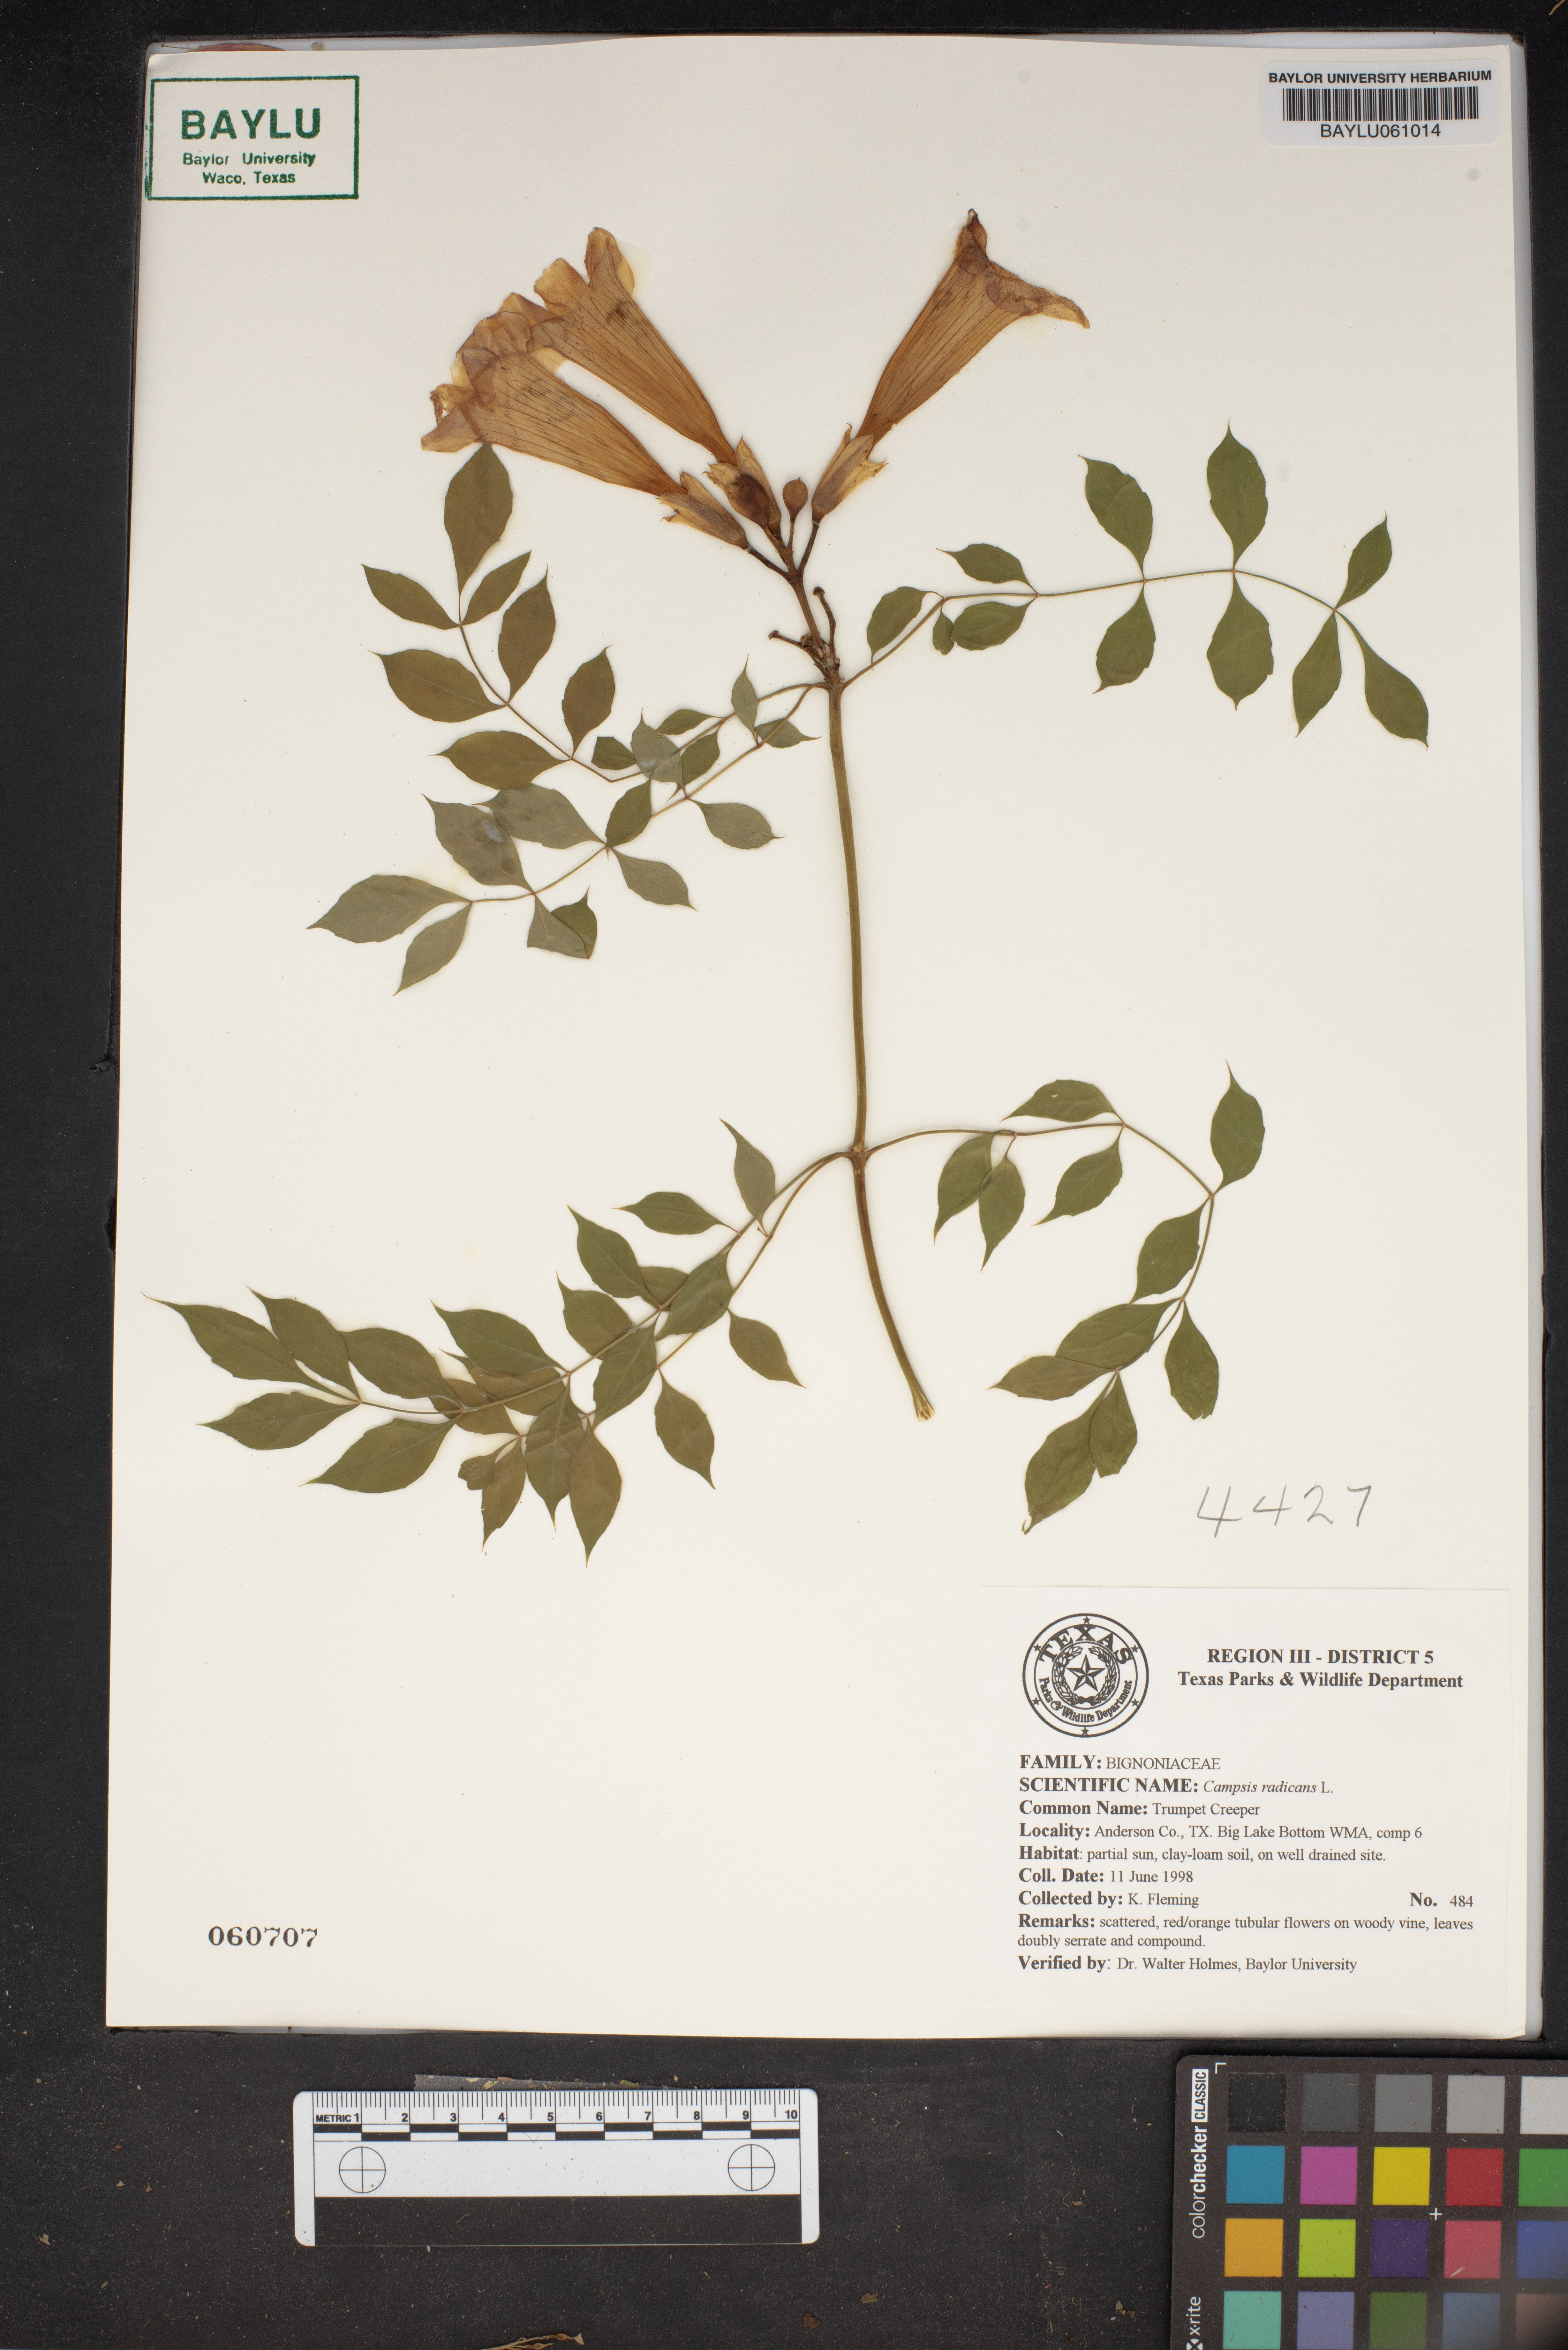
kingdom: Plantae
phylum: Tracheophyta
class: Magnoliopsida
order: Lamiales
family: Bignoniaceae
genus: Campsis
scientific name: Campsis radicans
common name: Trumpet-creeper
